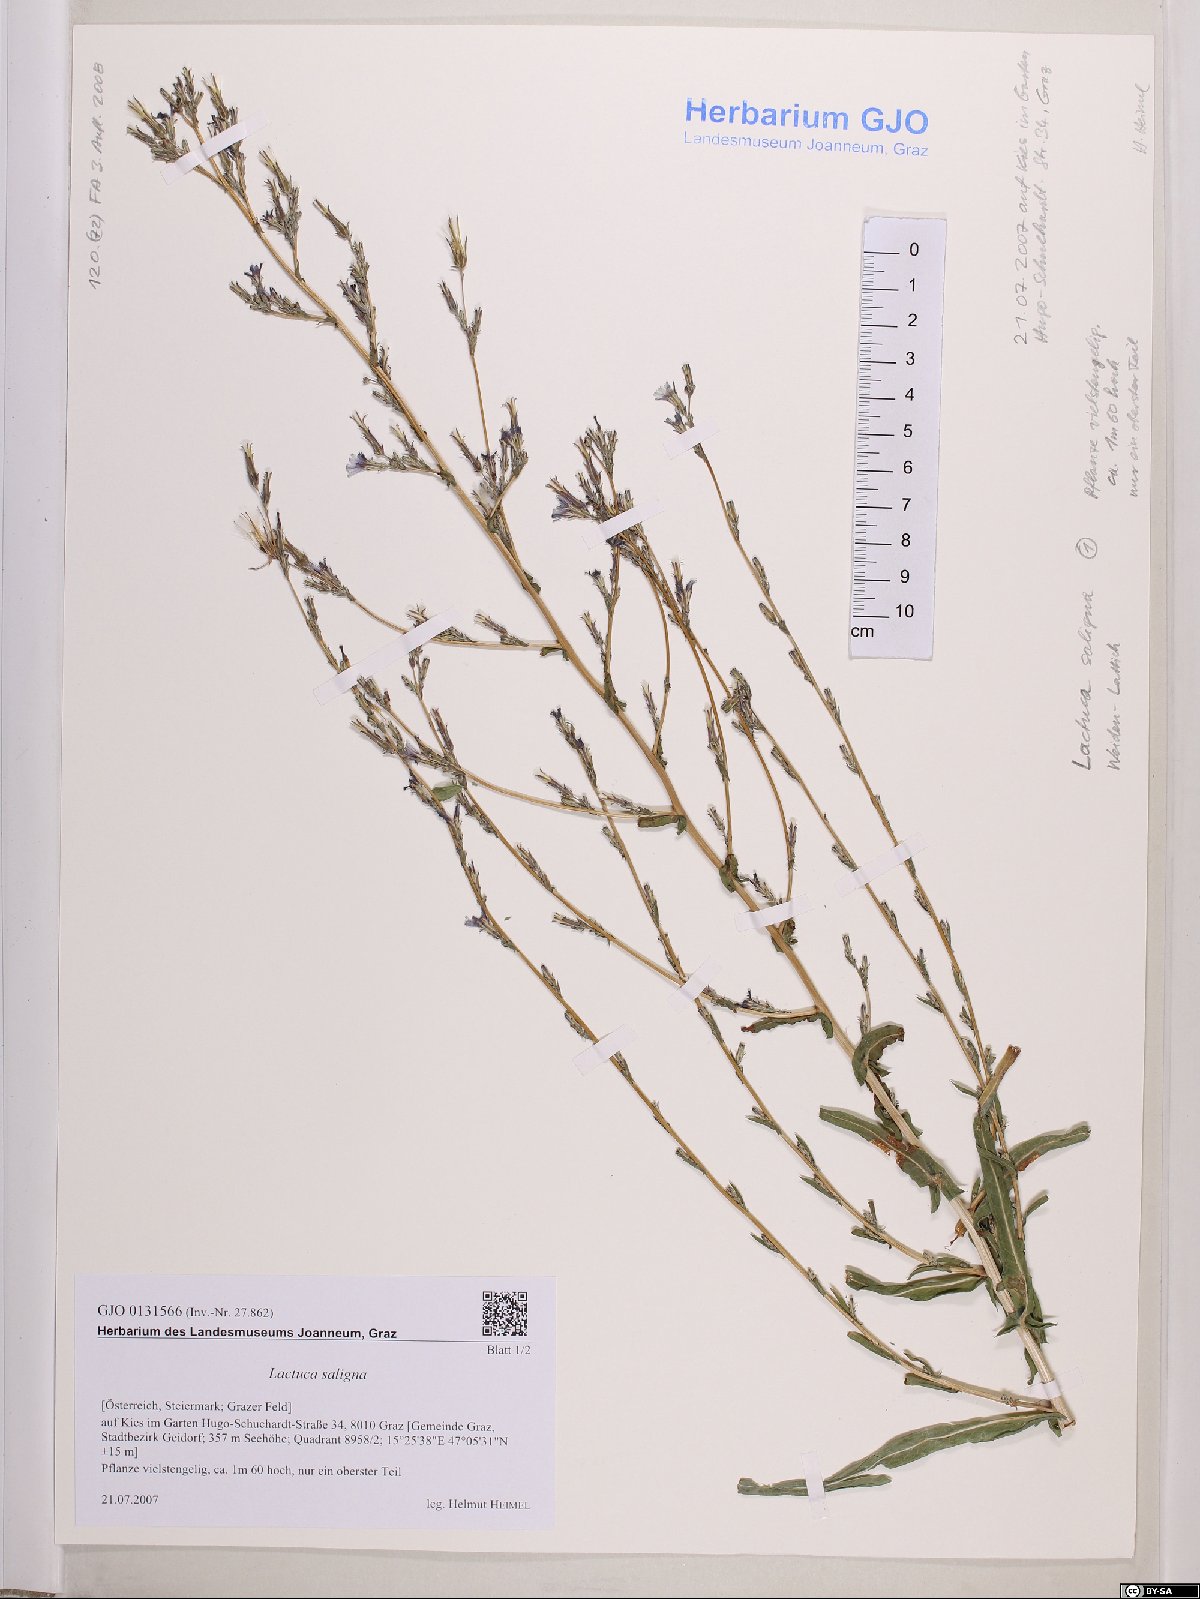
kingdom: Plantae
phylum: Tracheophyta
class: Magnoliopsida
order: Asterales
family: Asteraceae
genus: Lactuca
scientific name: Lactuca saligna
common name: Wild lettuce
